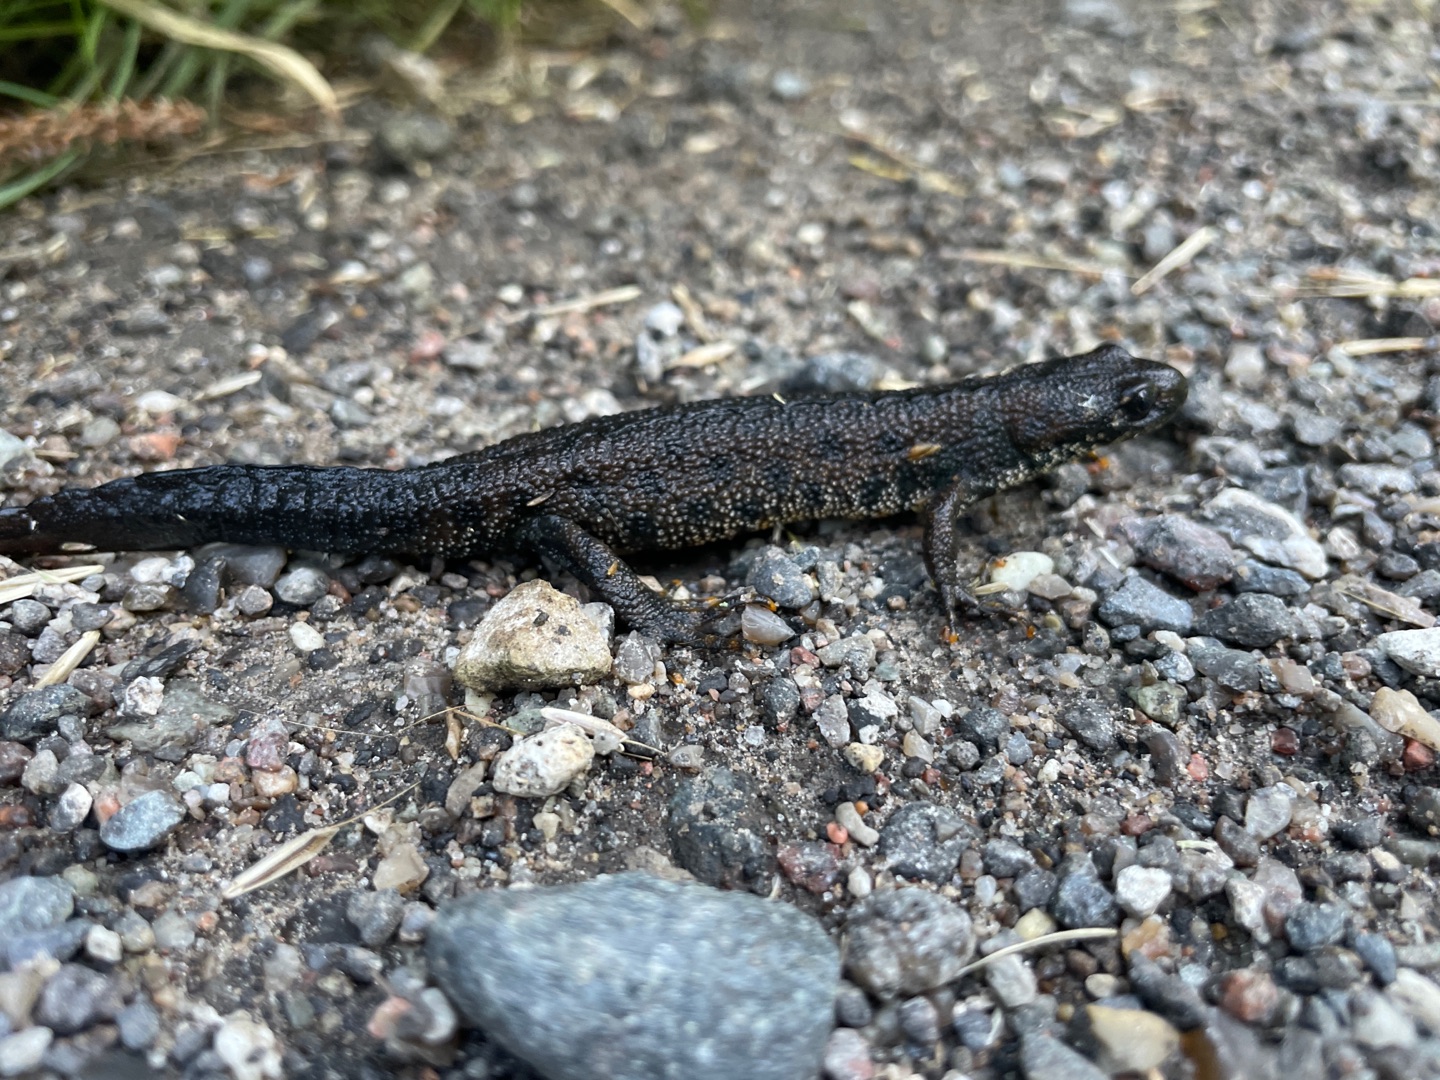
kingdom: Animalia
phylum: Chordata
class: Amphibia
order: Caudata
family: Salamandridae
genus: Triturus
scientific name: Triturus cristatus
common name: Stor vandsalamander
